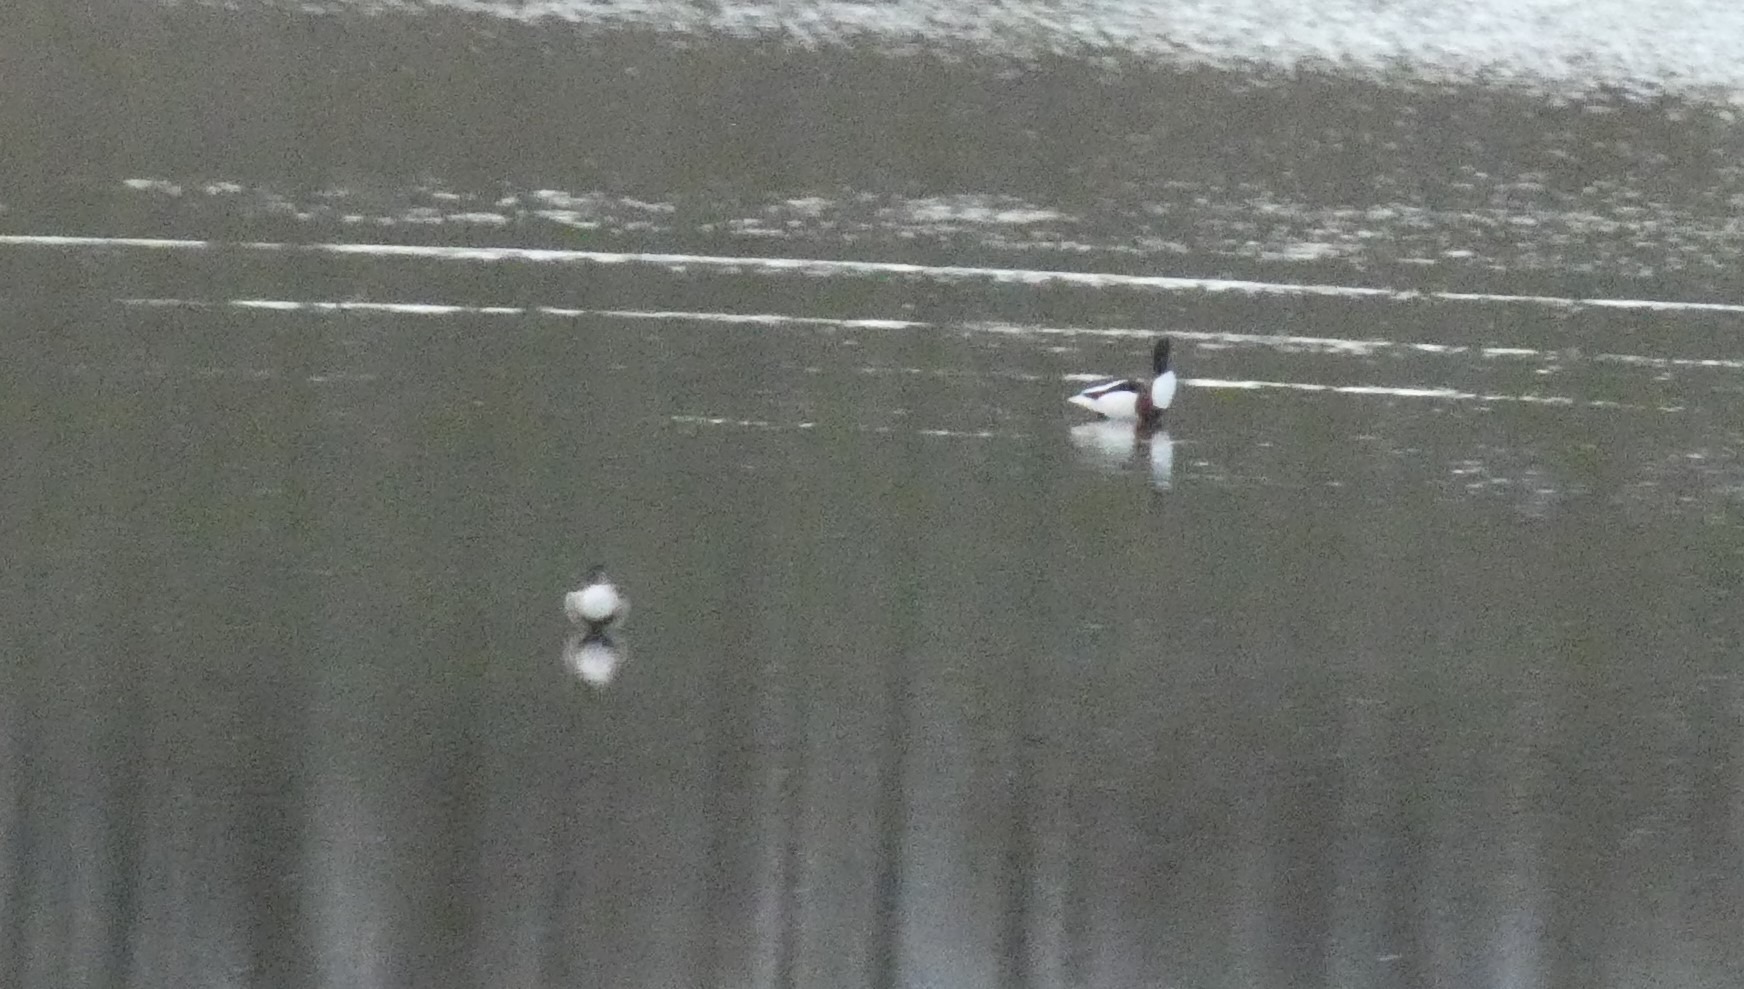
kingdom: Animalia
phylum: Chordata
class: Aves
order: Anseriformes
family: Anatidae
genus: Tadorna
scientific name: Tadorna tadorna
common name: Gravand
